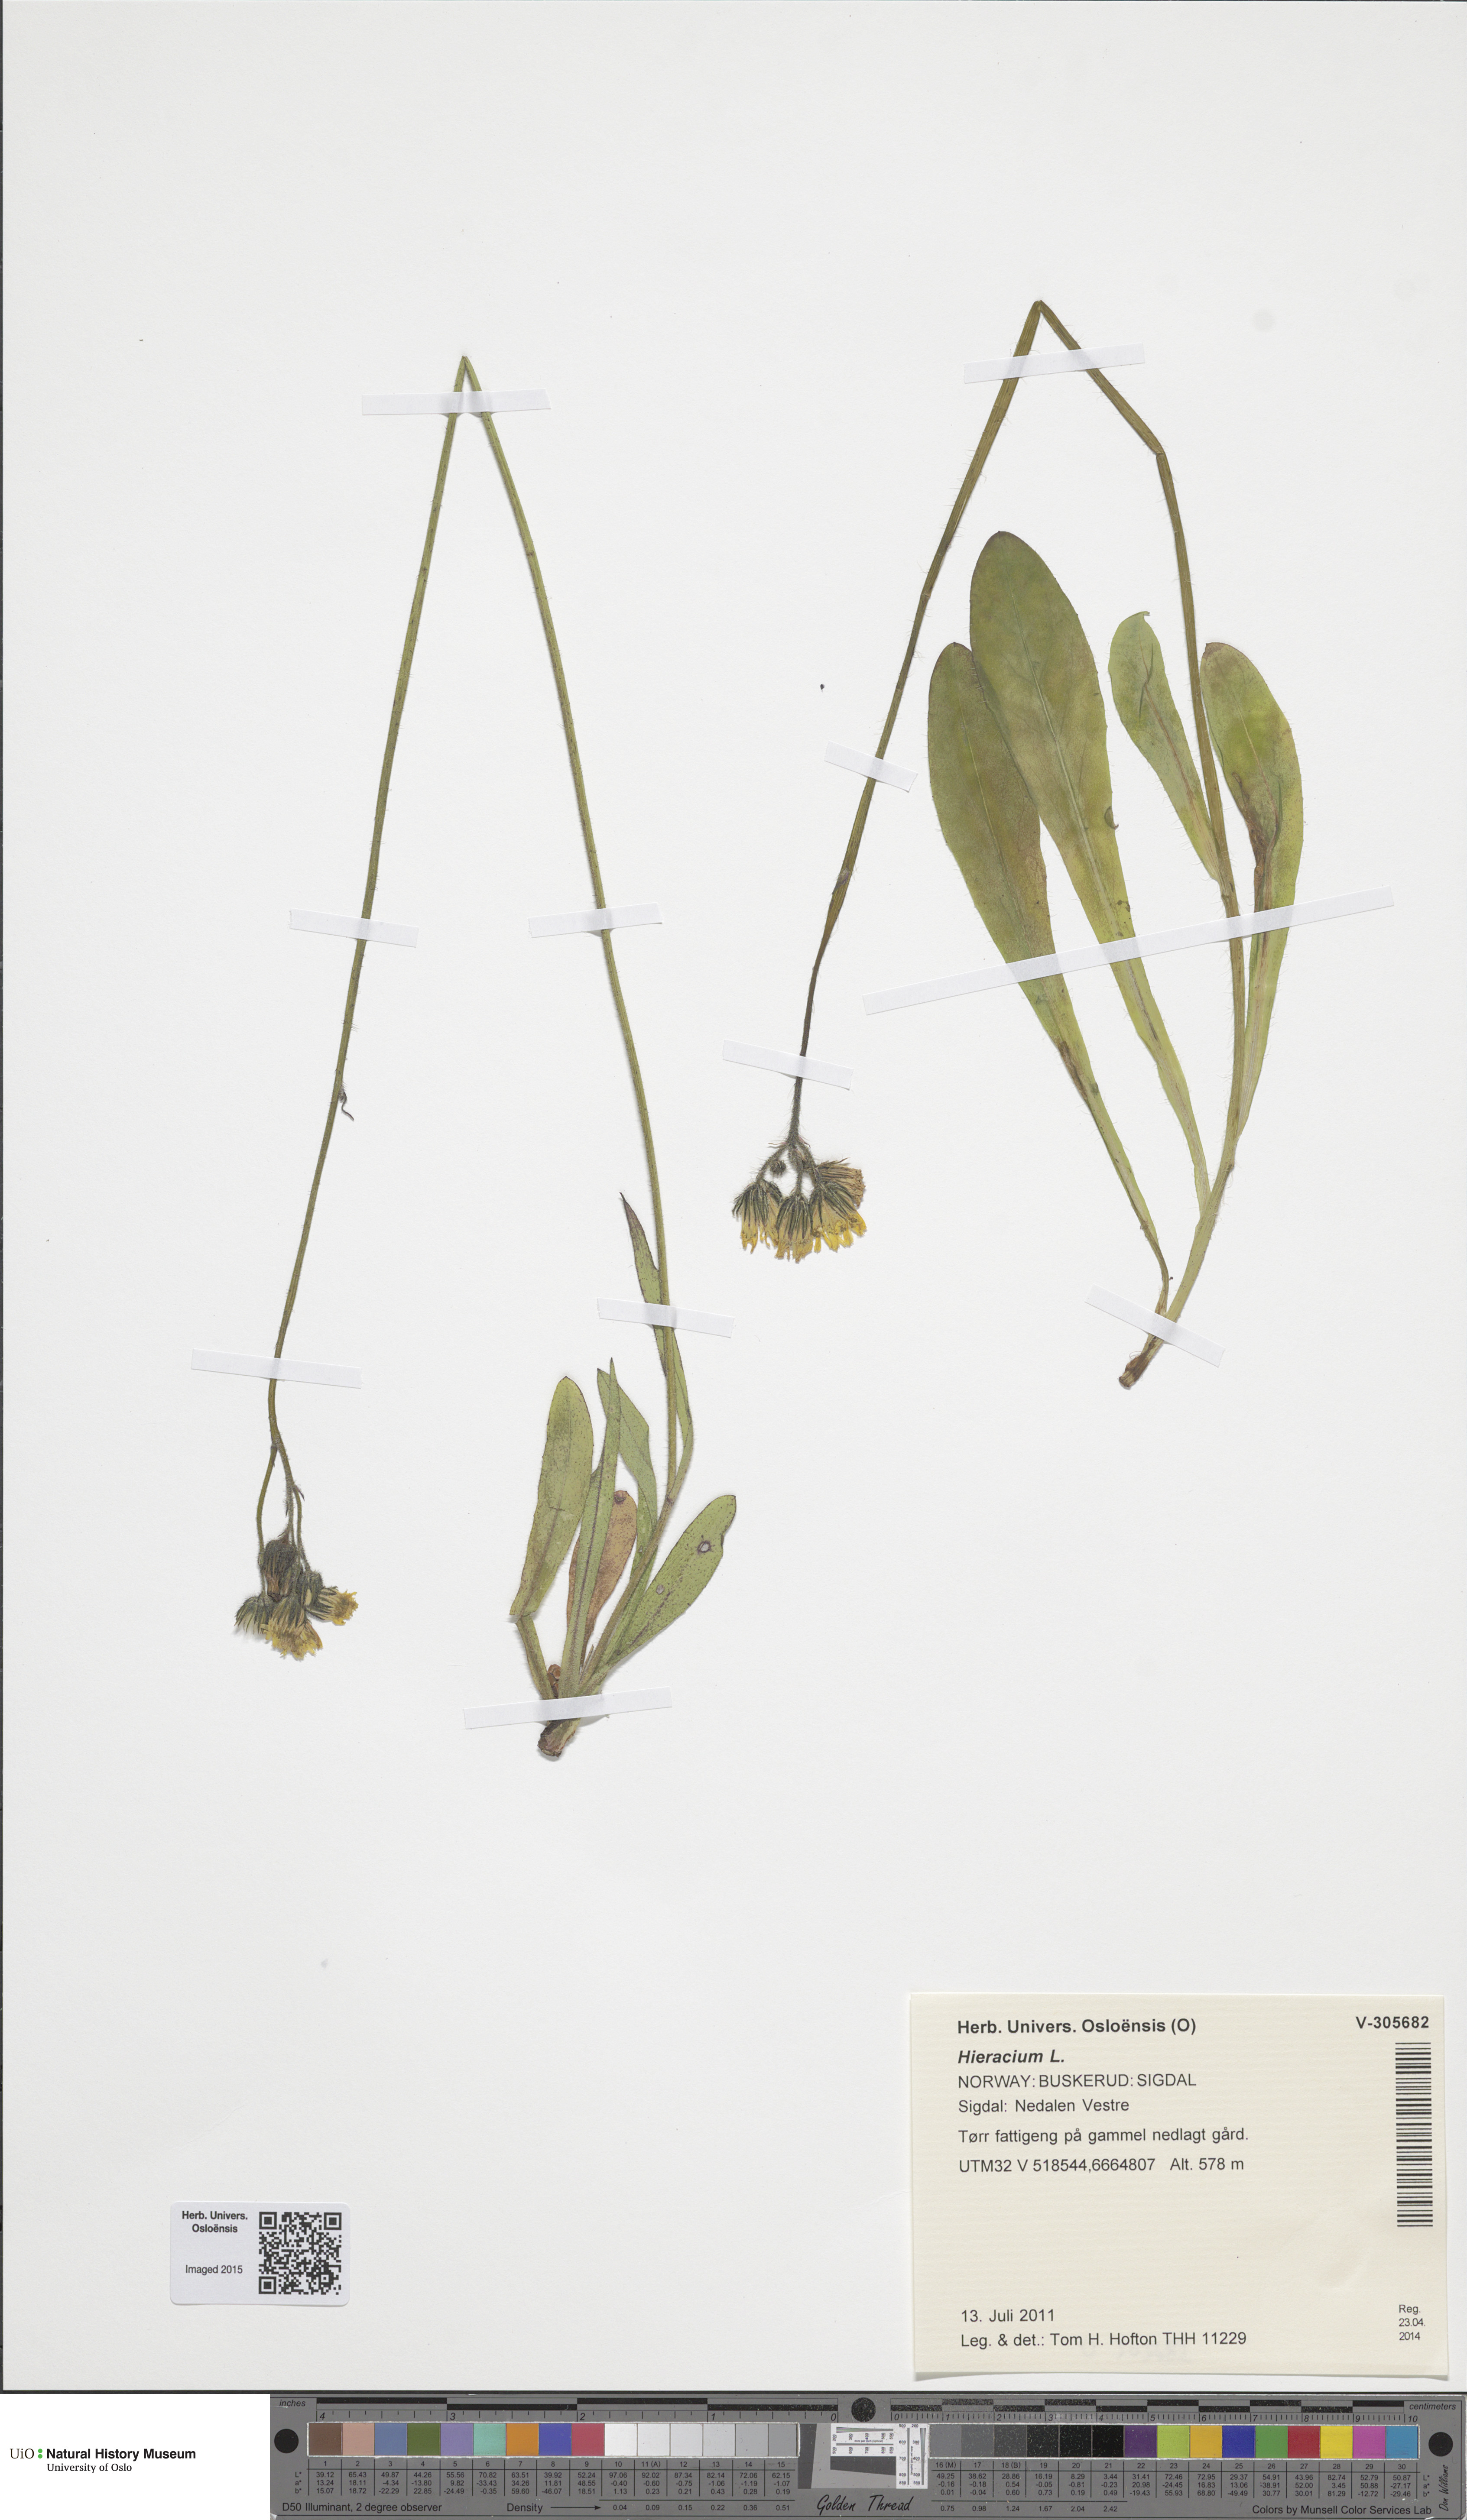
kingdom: Plantae
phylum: Tracheophyta
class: Magnoliopsida
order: Asterales
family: Asteraceae
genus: Hieracium
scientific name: Hieracium
